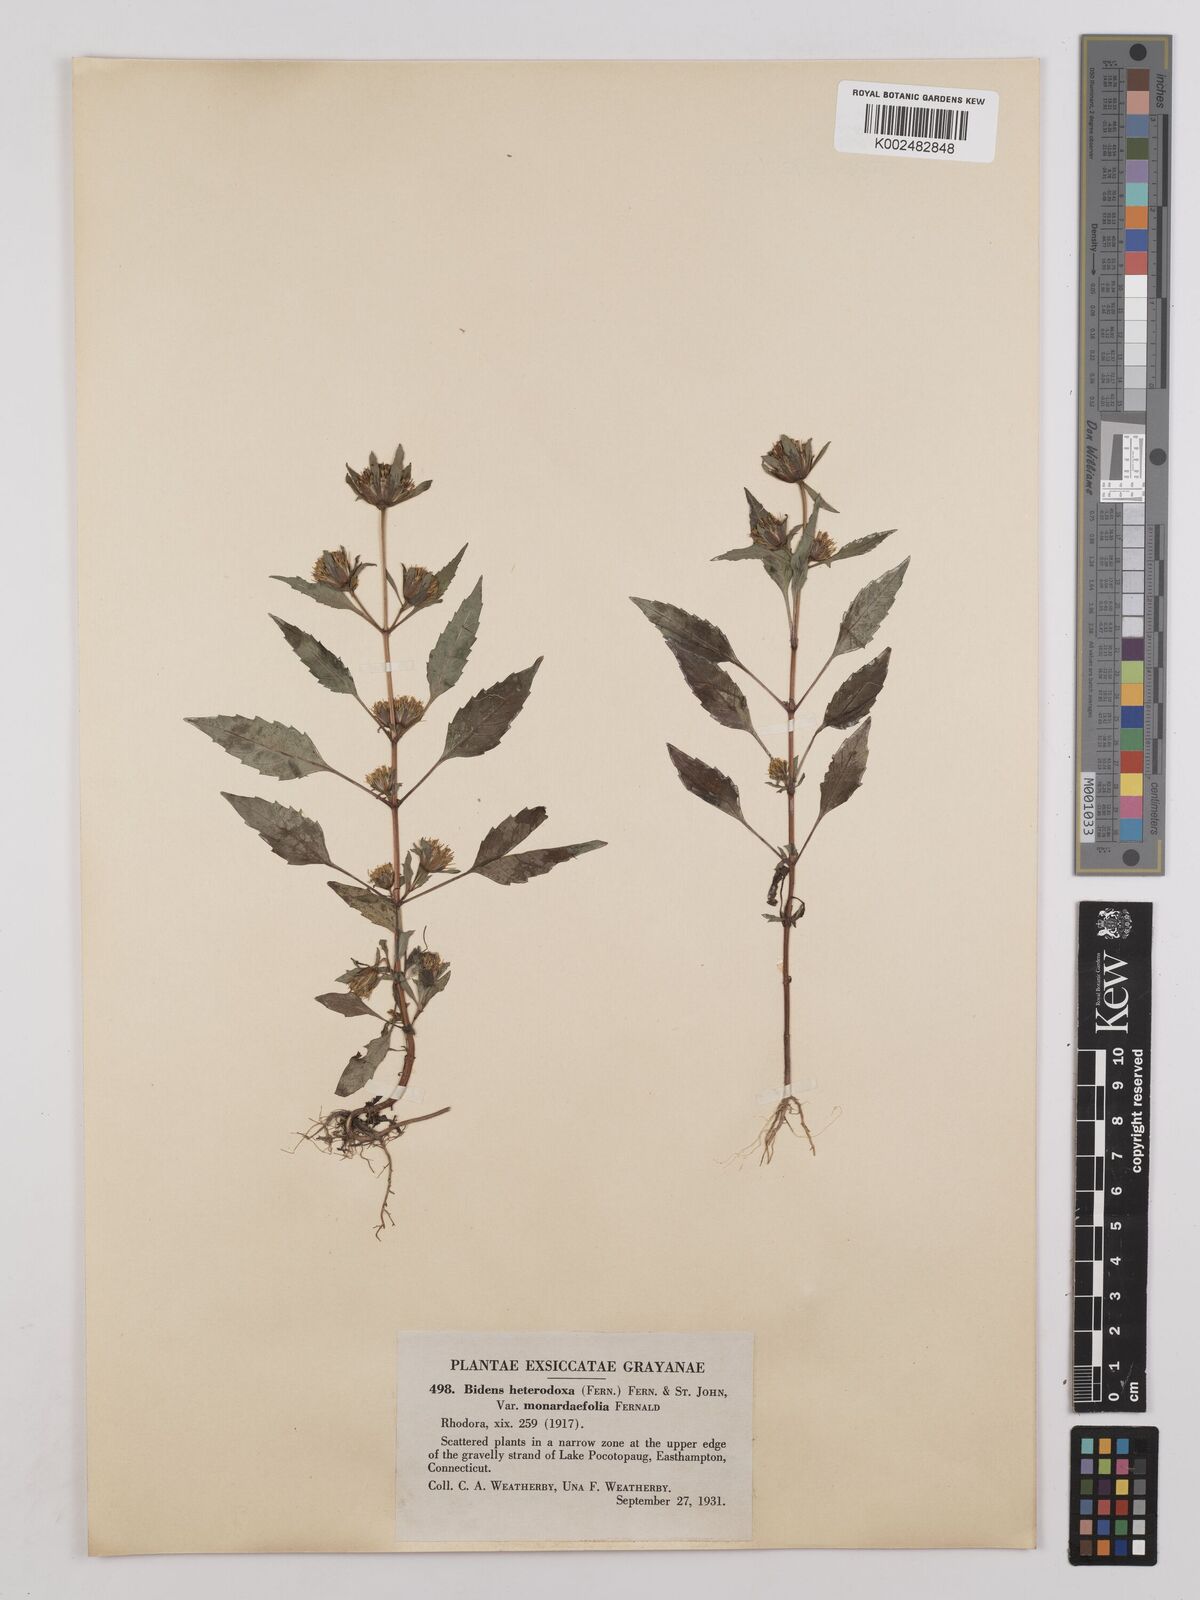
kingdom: Plantae
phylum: Tracheophyta
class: Magnoliopsida
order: Asterales
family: Asteraceae
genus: Bidens
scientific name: Bidens heterodoxa
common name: Connecticut beggarticks
